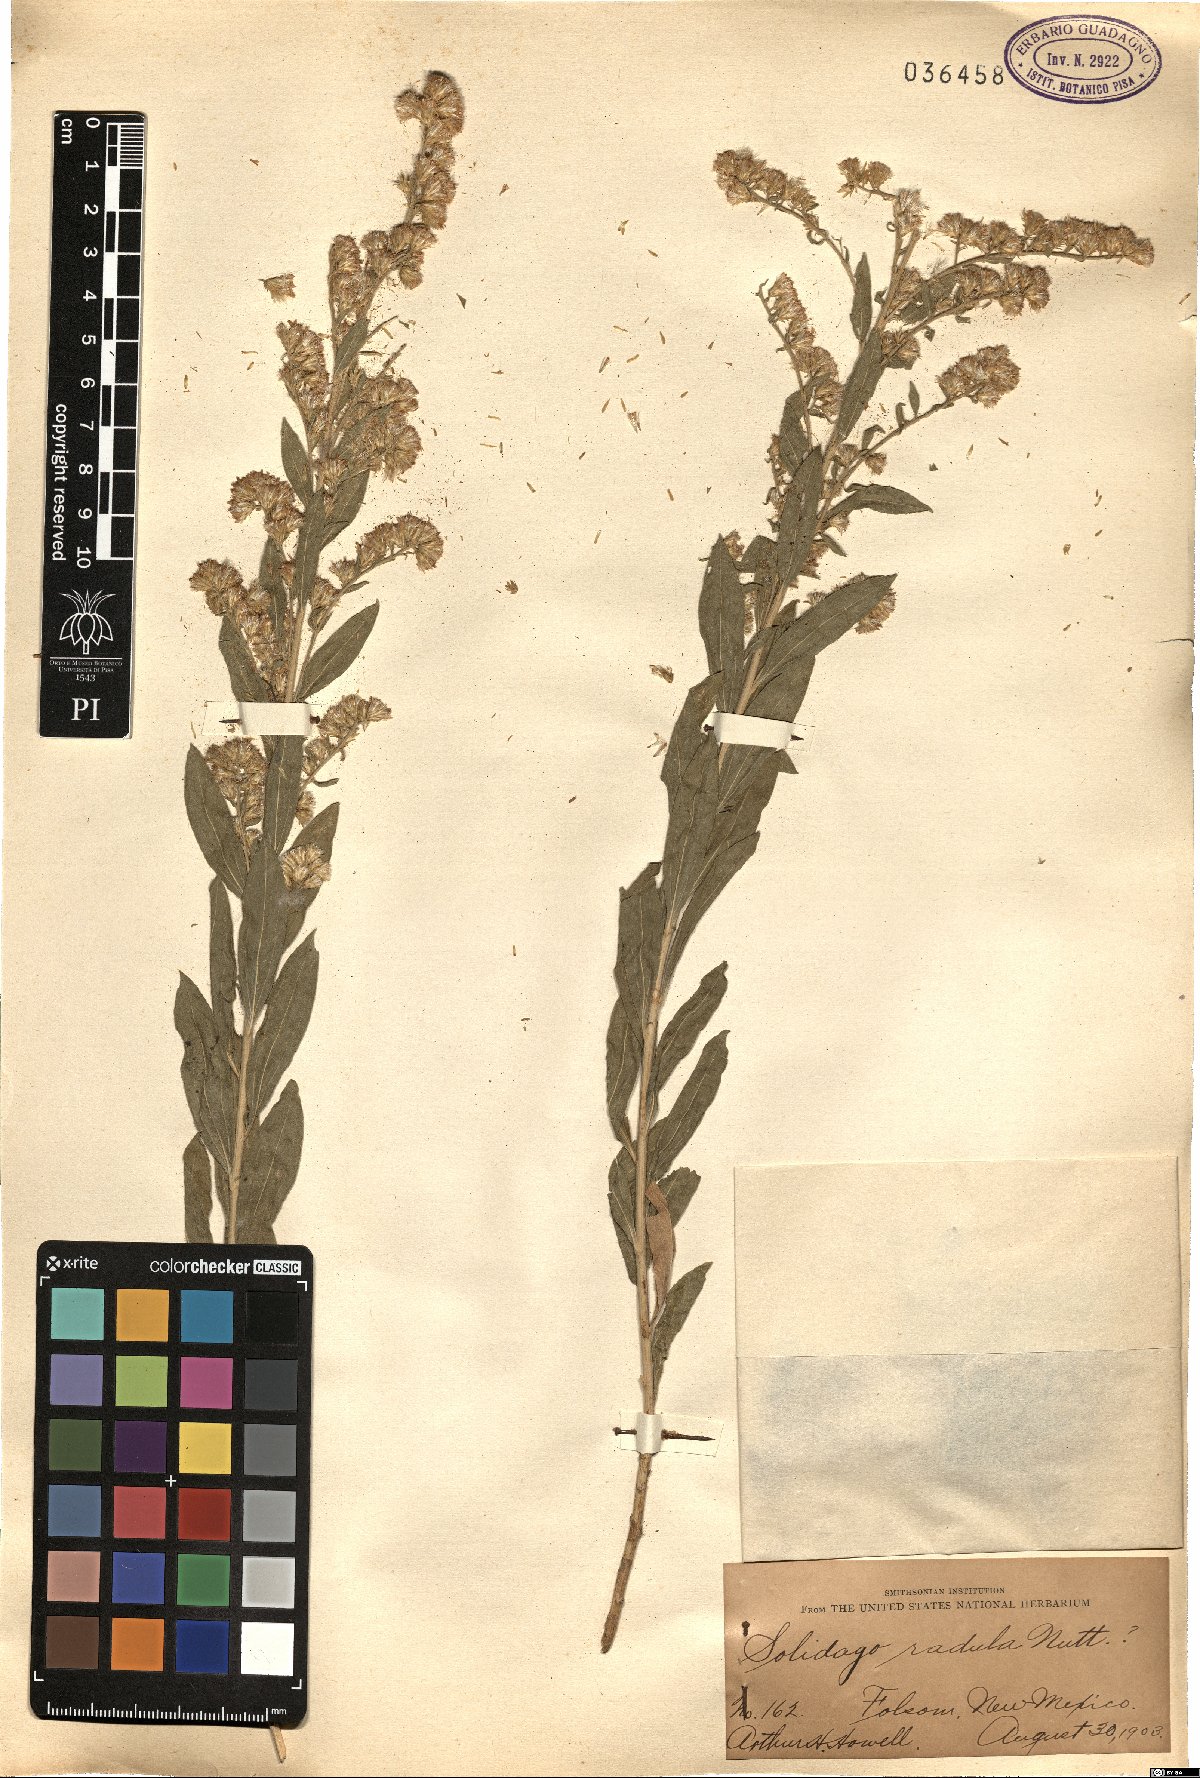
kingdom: Plantae
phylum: Tracheophyta
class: Magnoliopsida
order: Asterales
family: Asteraceae
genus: Solidago
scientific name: Solidago radula
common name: Western rough goldenrod
